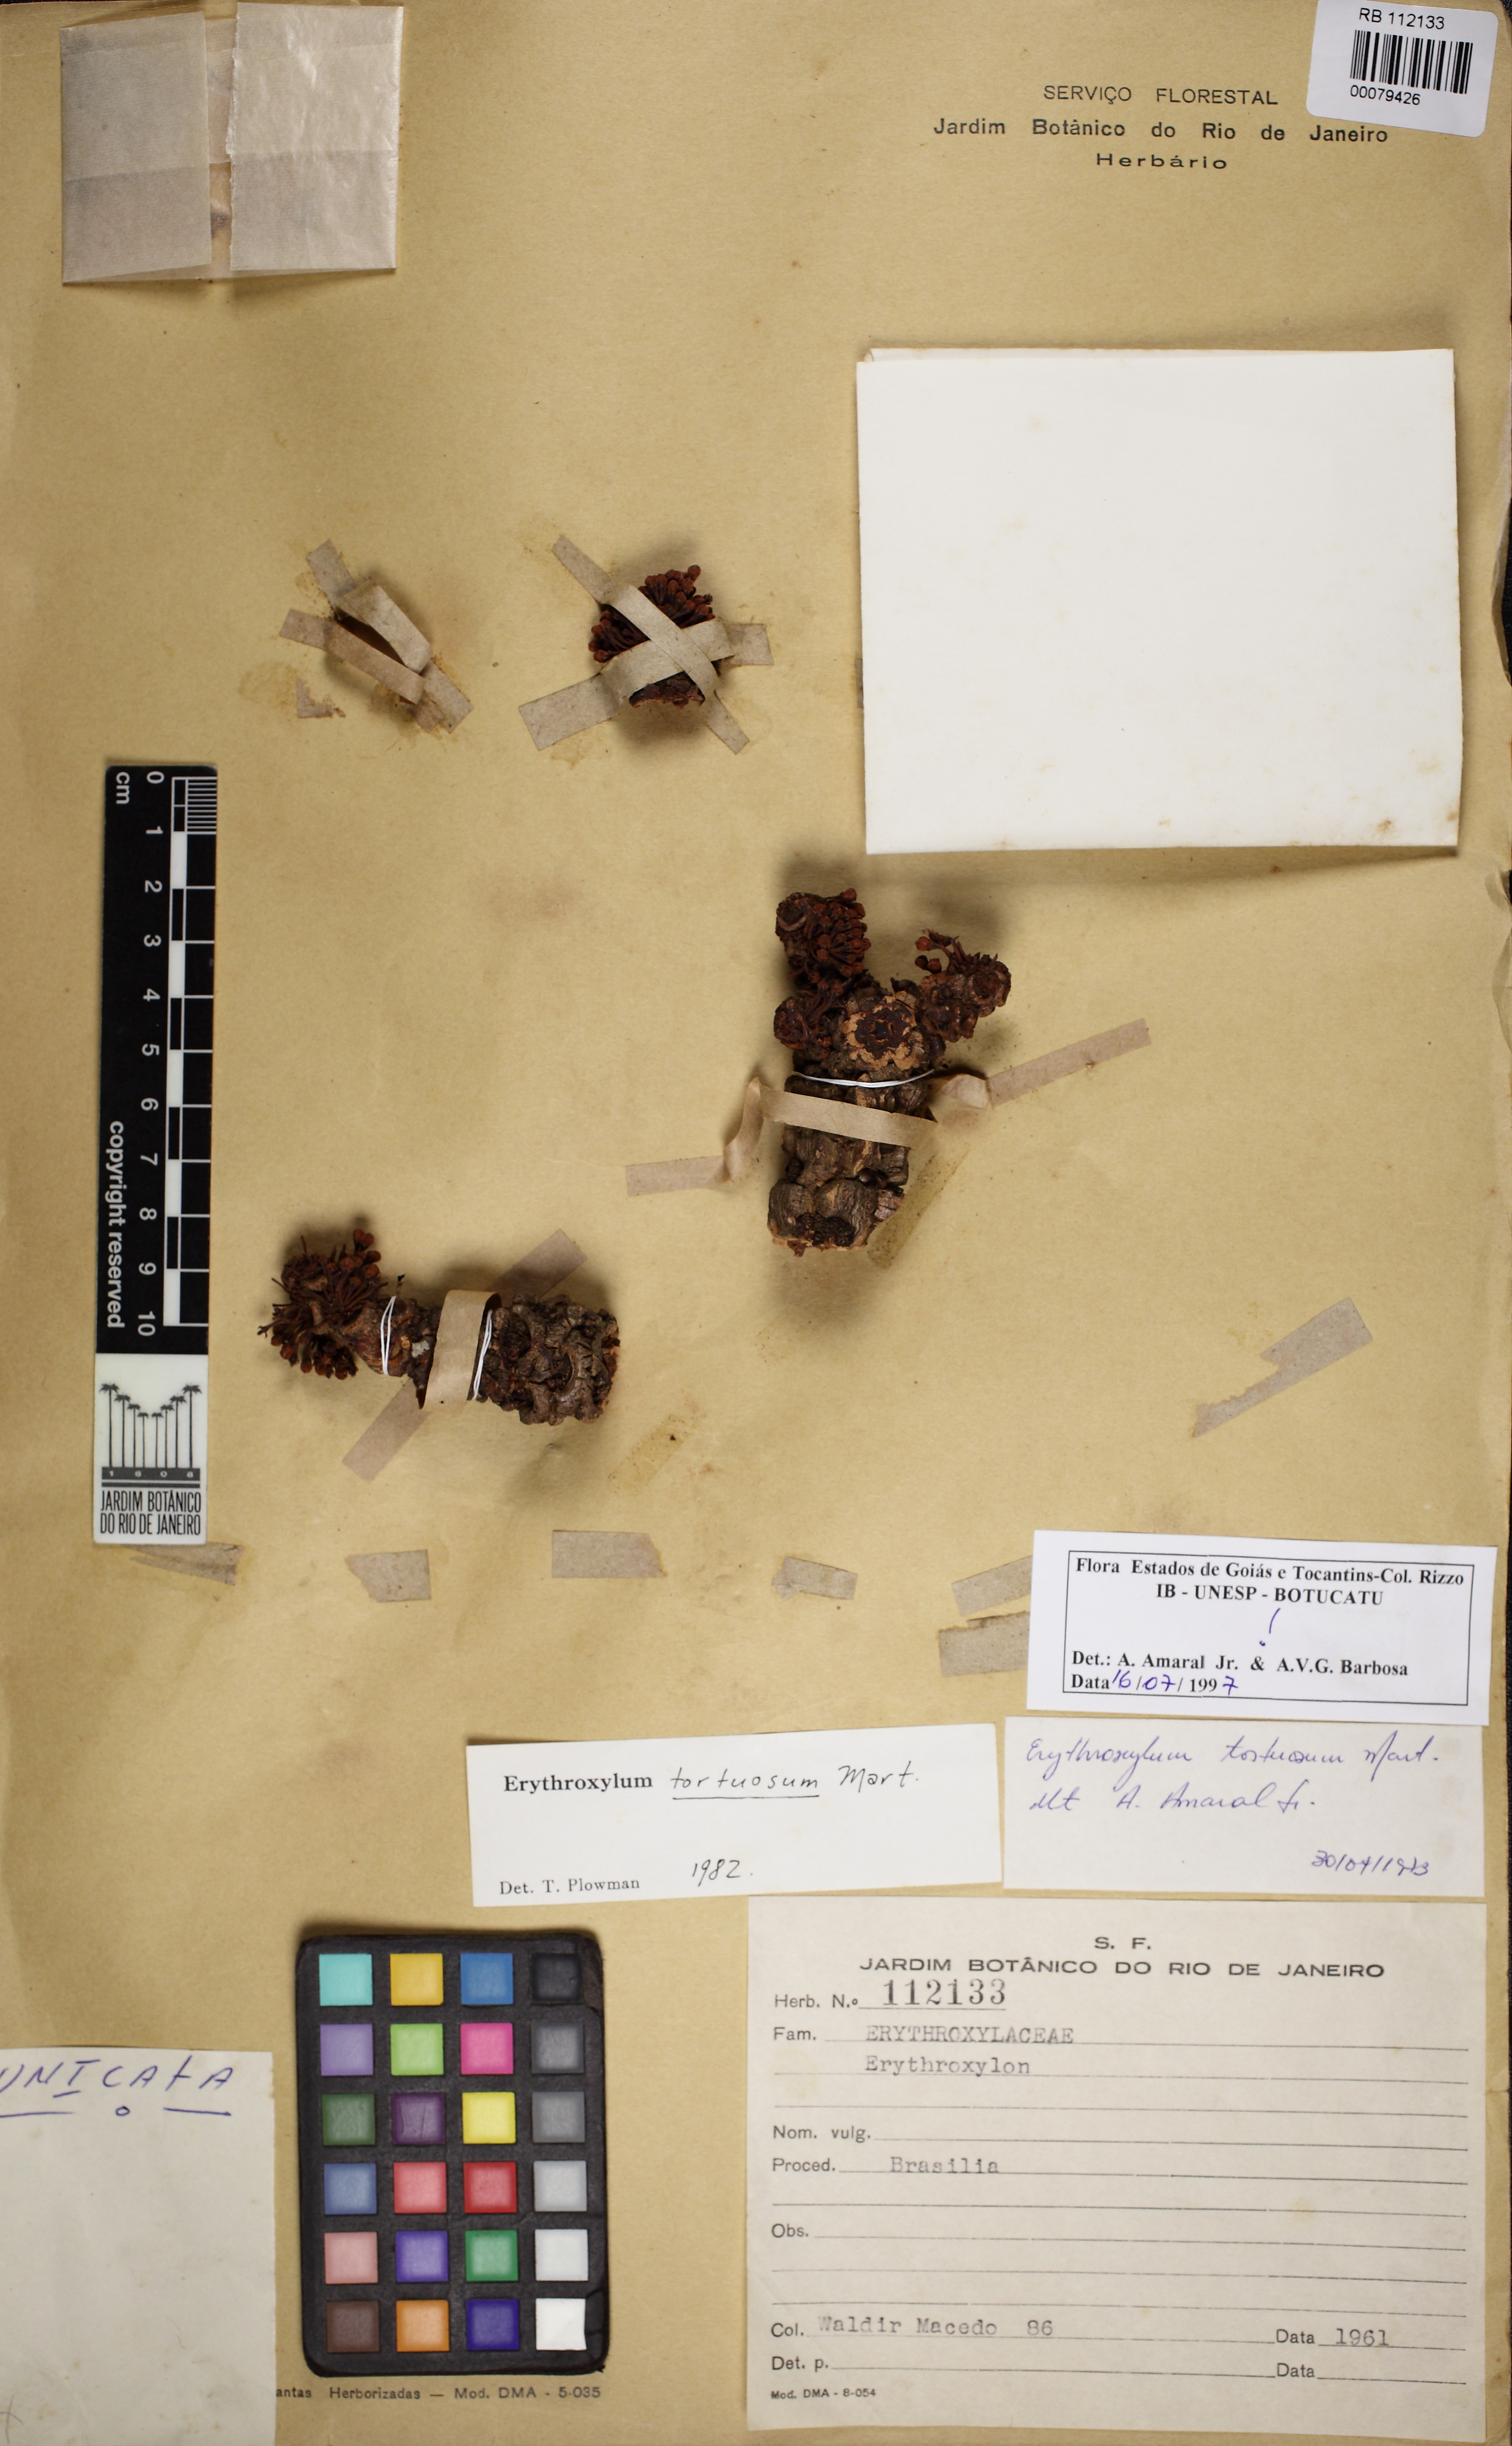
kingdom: Plantae
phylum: Tracheophyta
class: Magnoliopsida
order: Malpighiales
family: Erythroxylaceae
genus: Erythroxylum
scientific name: Erythroxylum tortuosum
